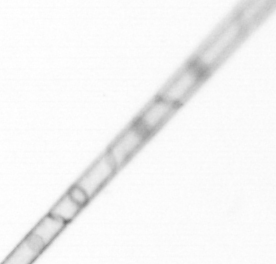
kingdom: Chromista
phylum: Ochrophyta
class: Bacillariophyceae
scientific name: Bacillariophyceae
